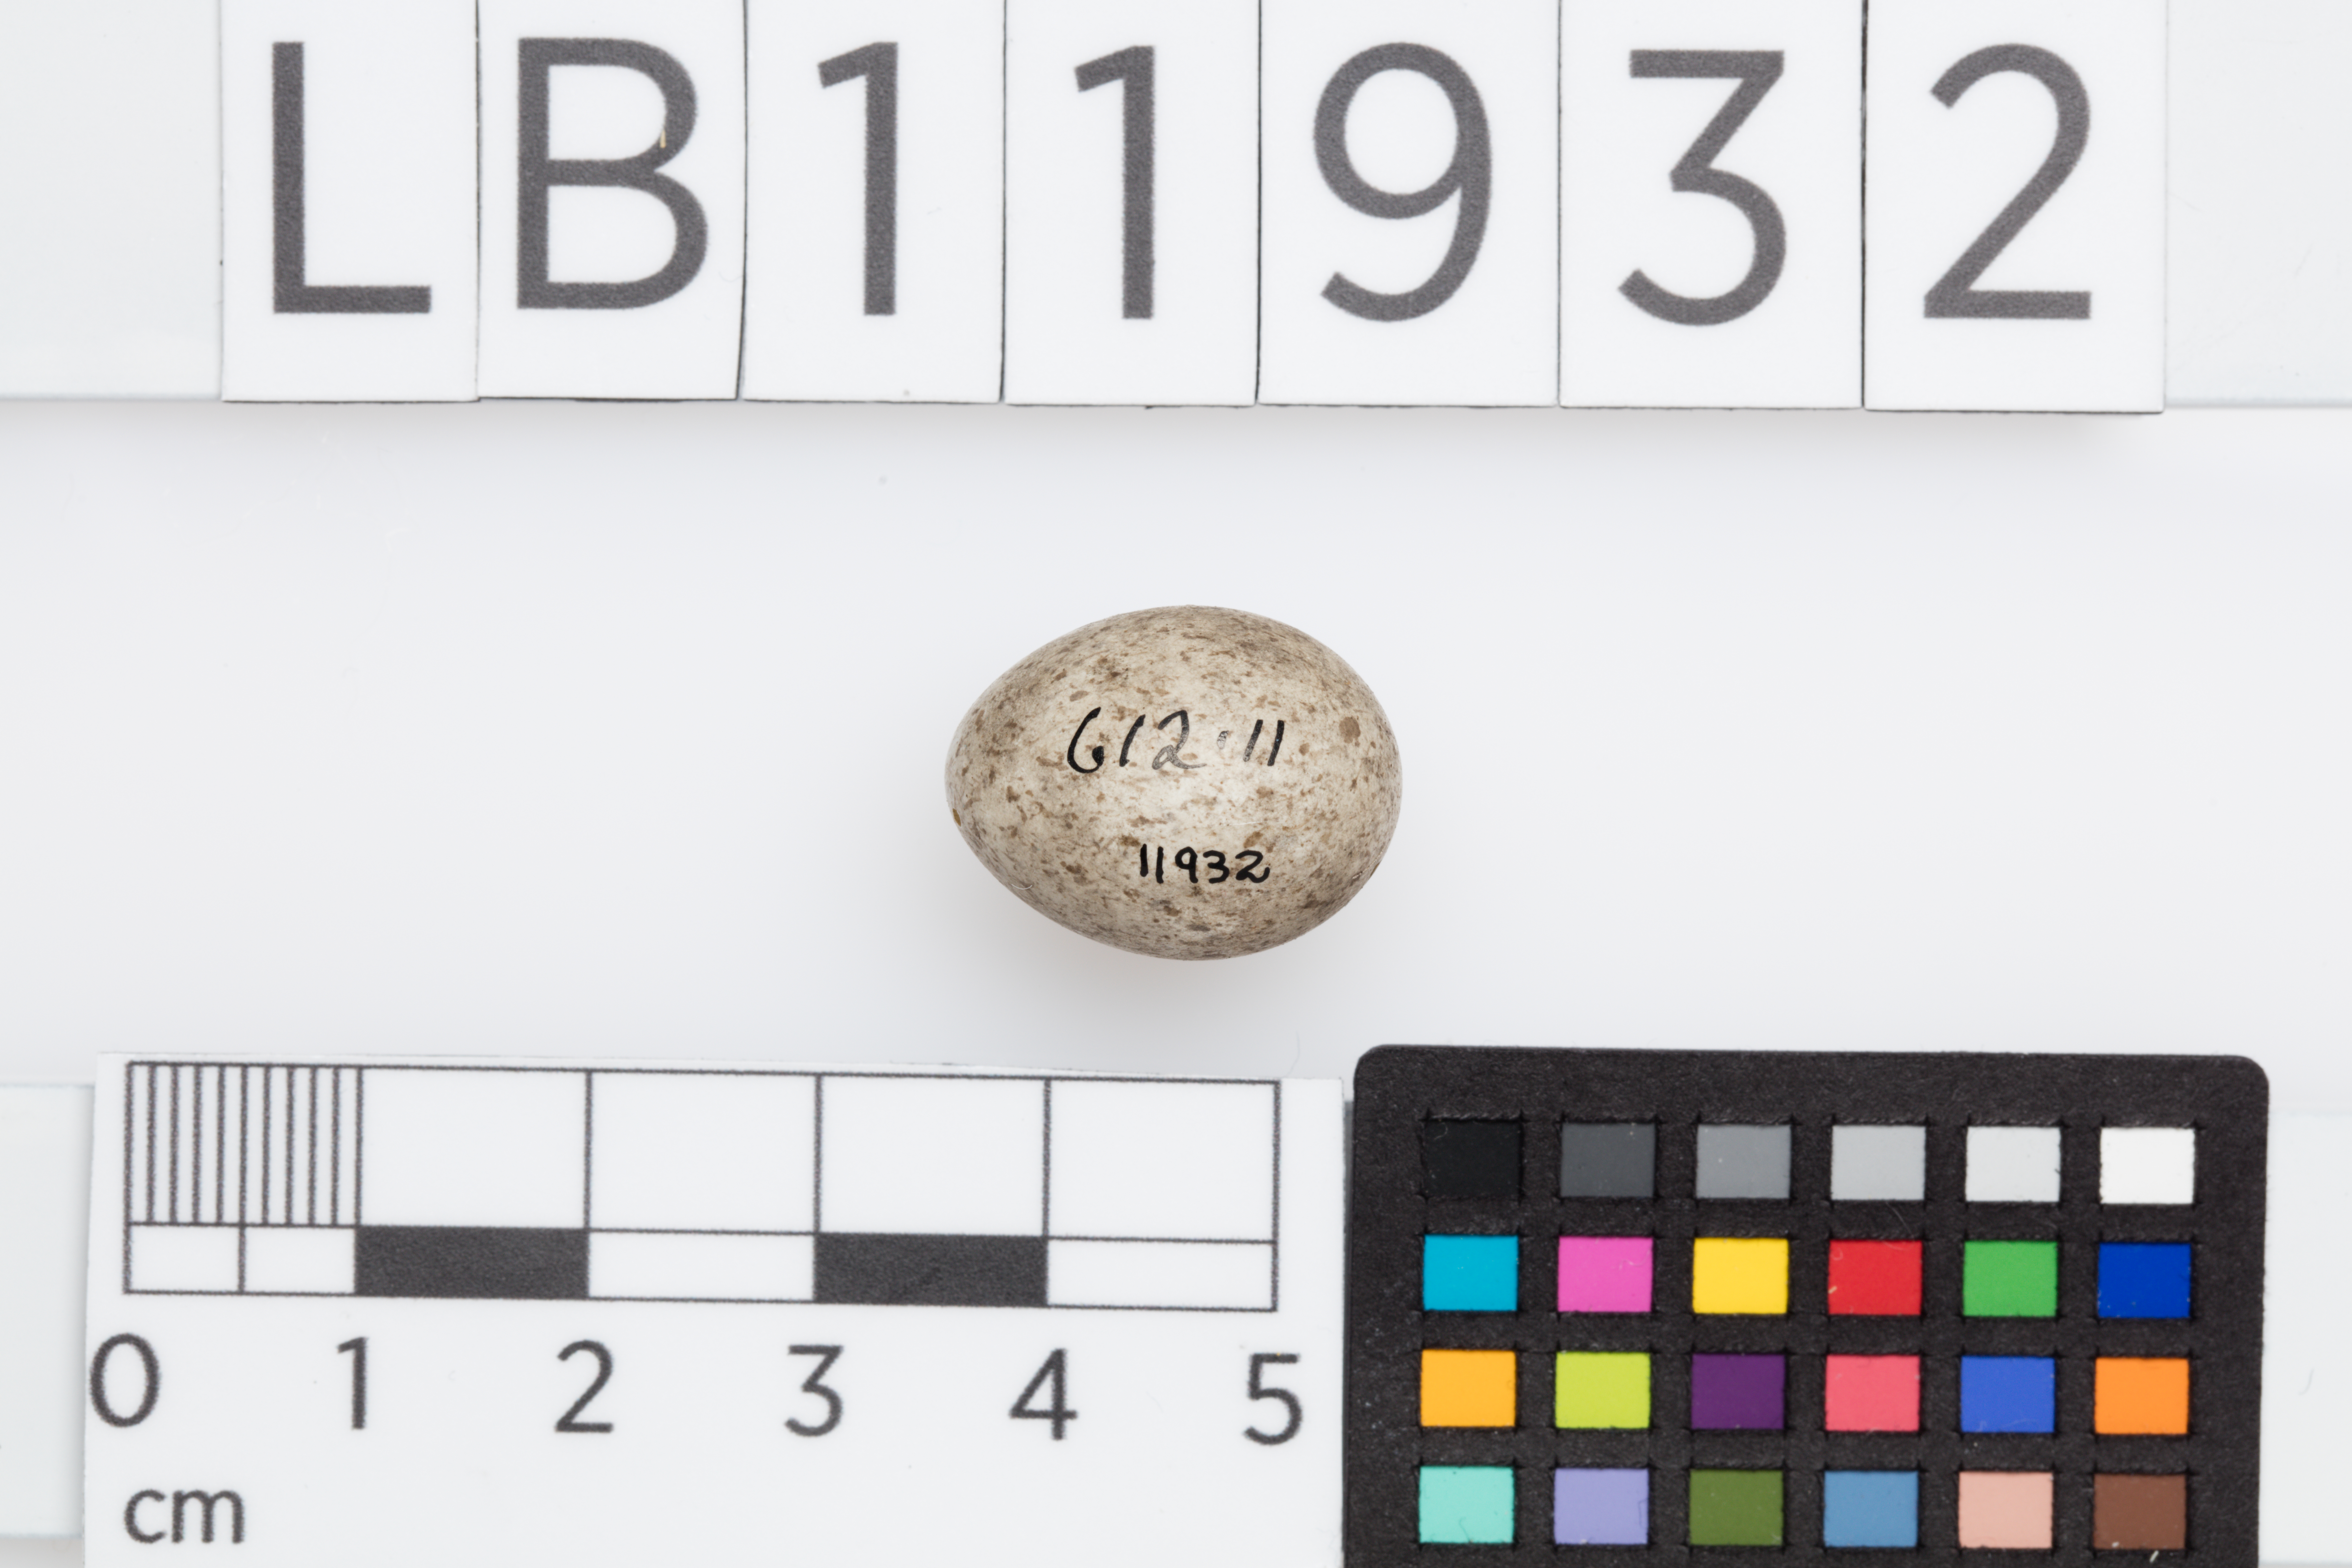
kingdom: Animalia
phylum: Chordata
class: Aves
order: Passeriformes
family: Motacillidae
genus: Motacilla
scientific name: Motacilla alba
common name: White wagtail
